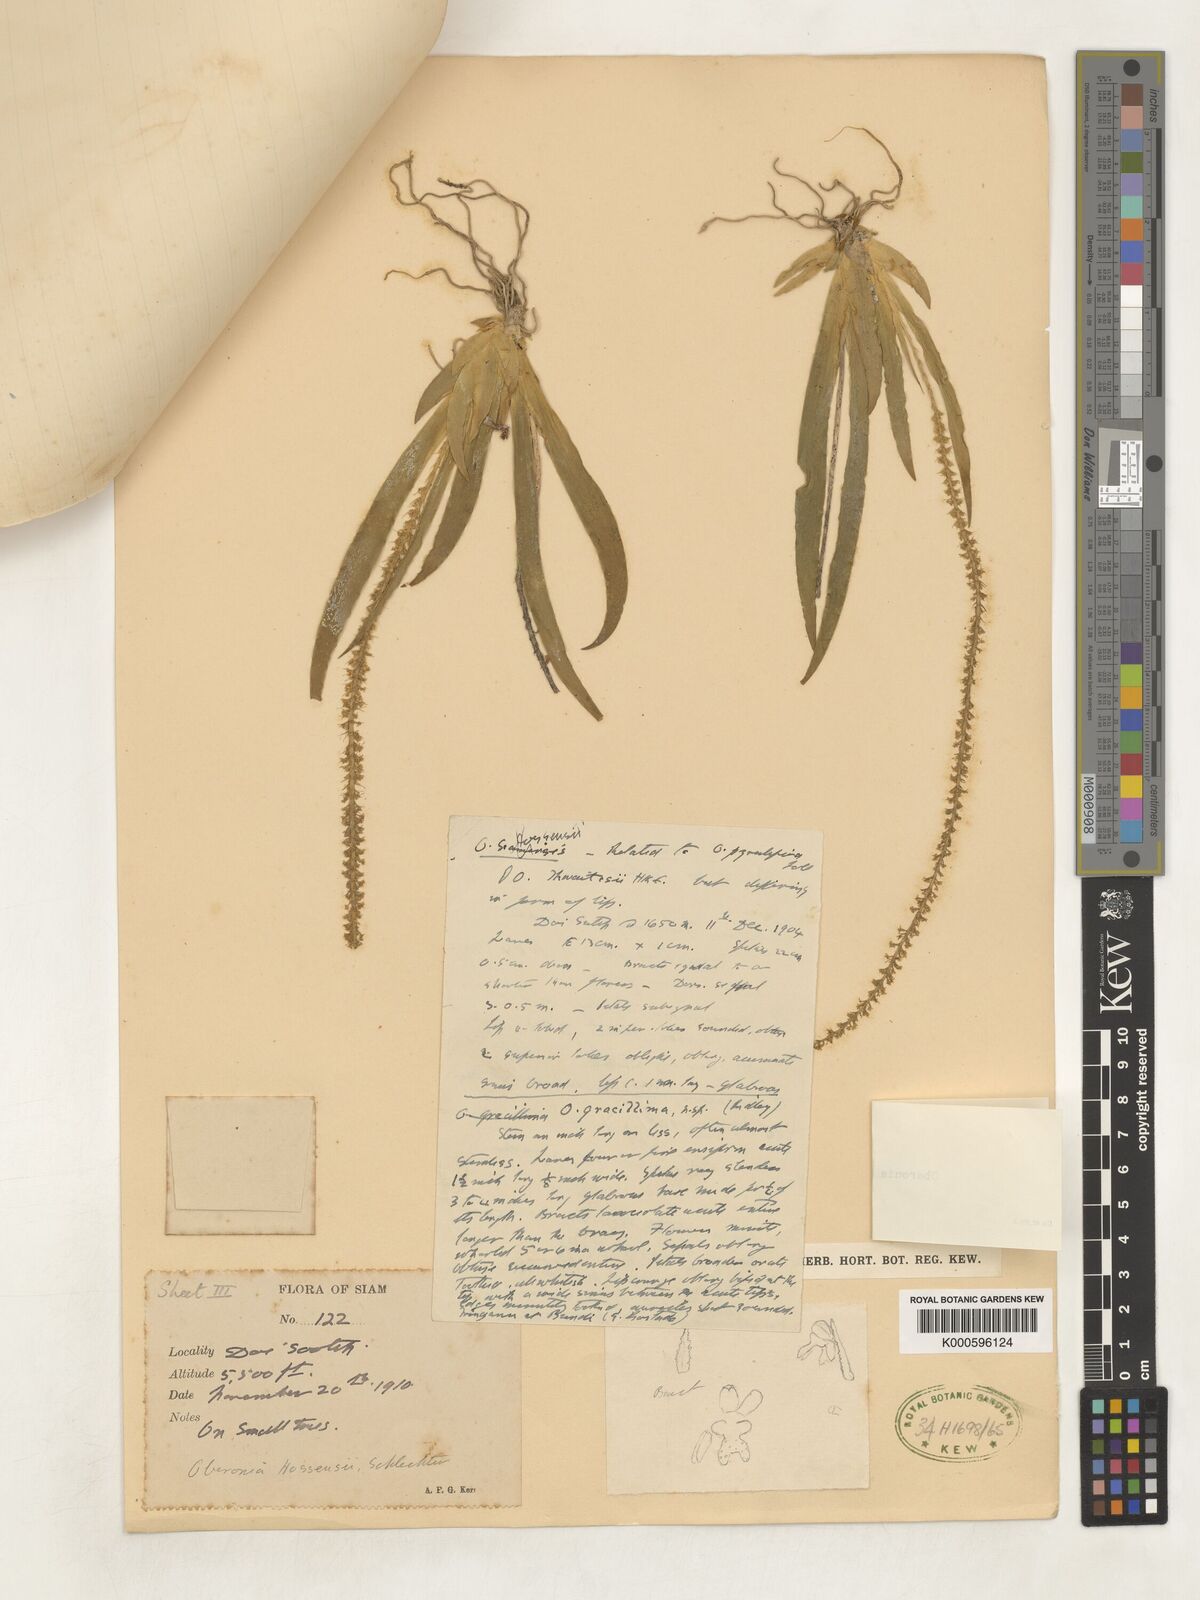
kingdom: Plantae
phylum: Tracheophyta
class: Liliopsida
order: Asparagales
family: Orchidaceae
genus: Oberonia
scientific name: Oberonia acaulis
